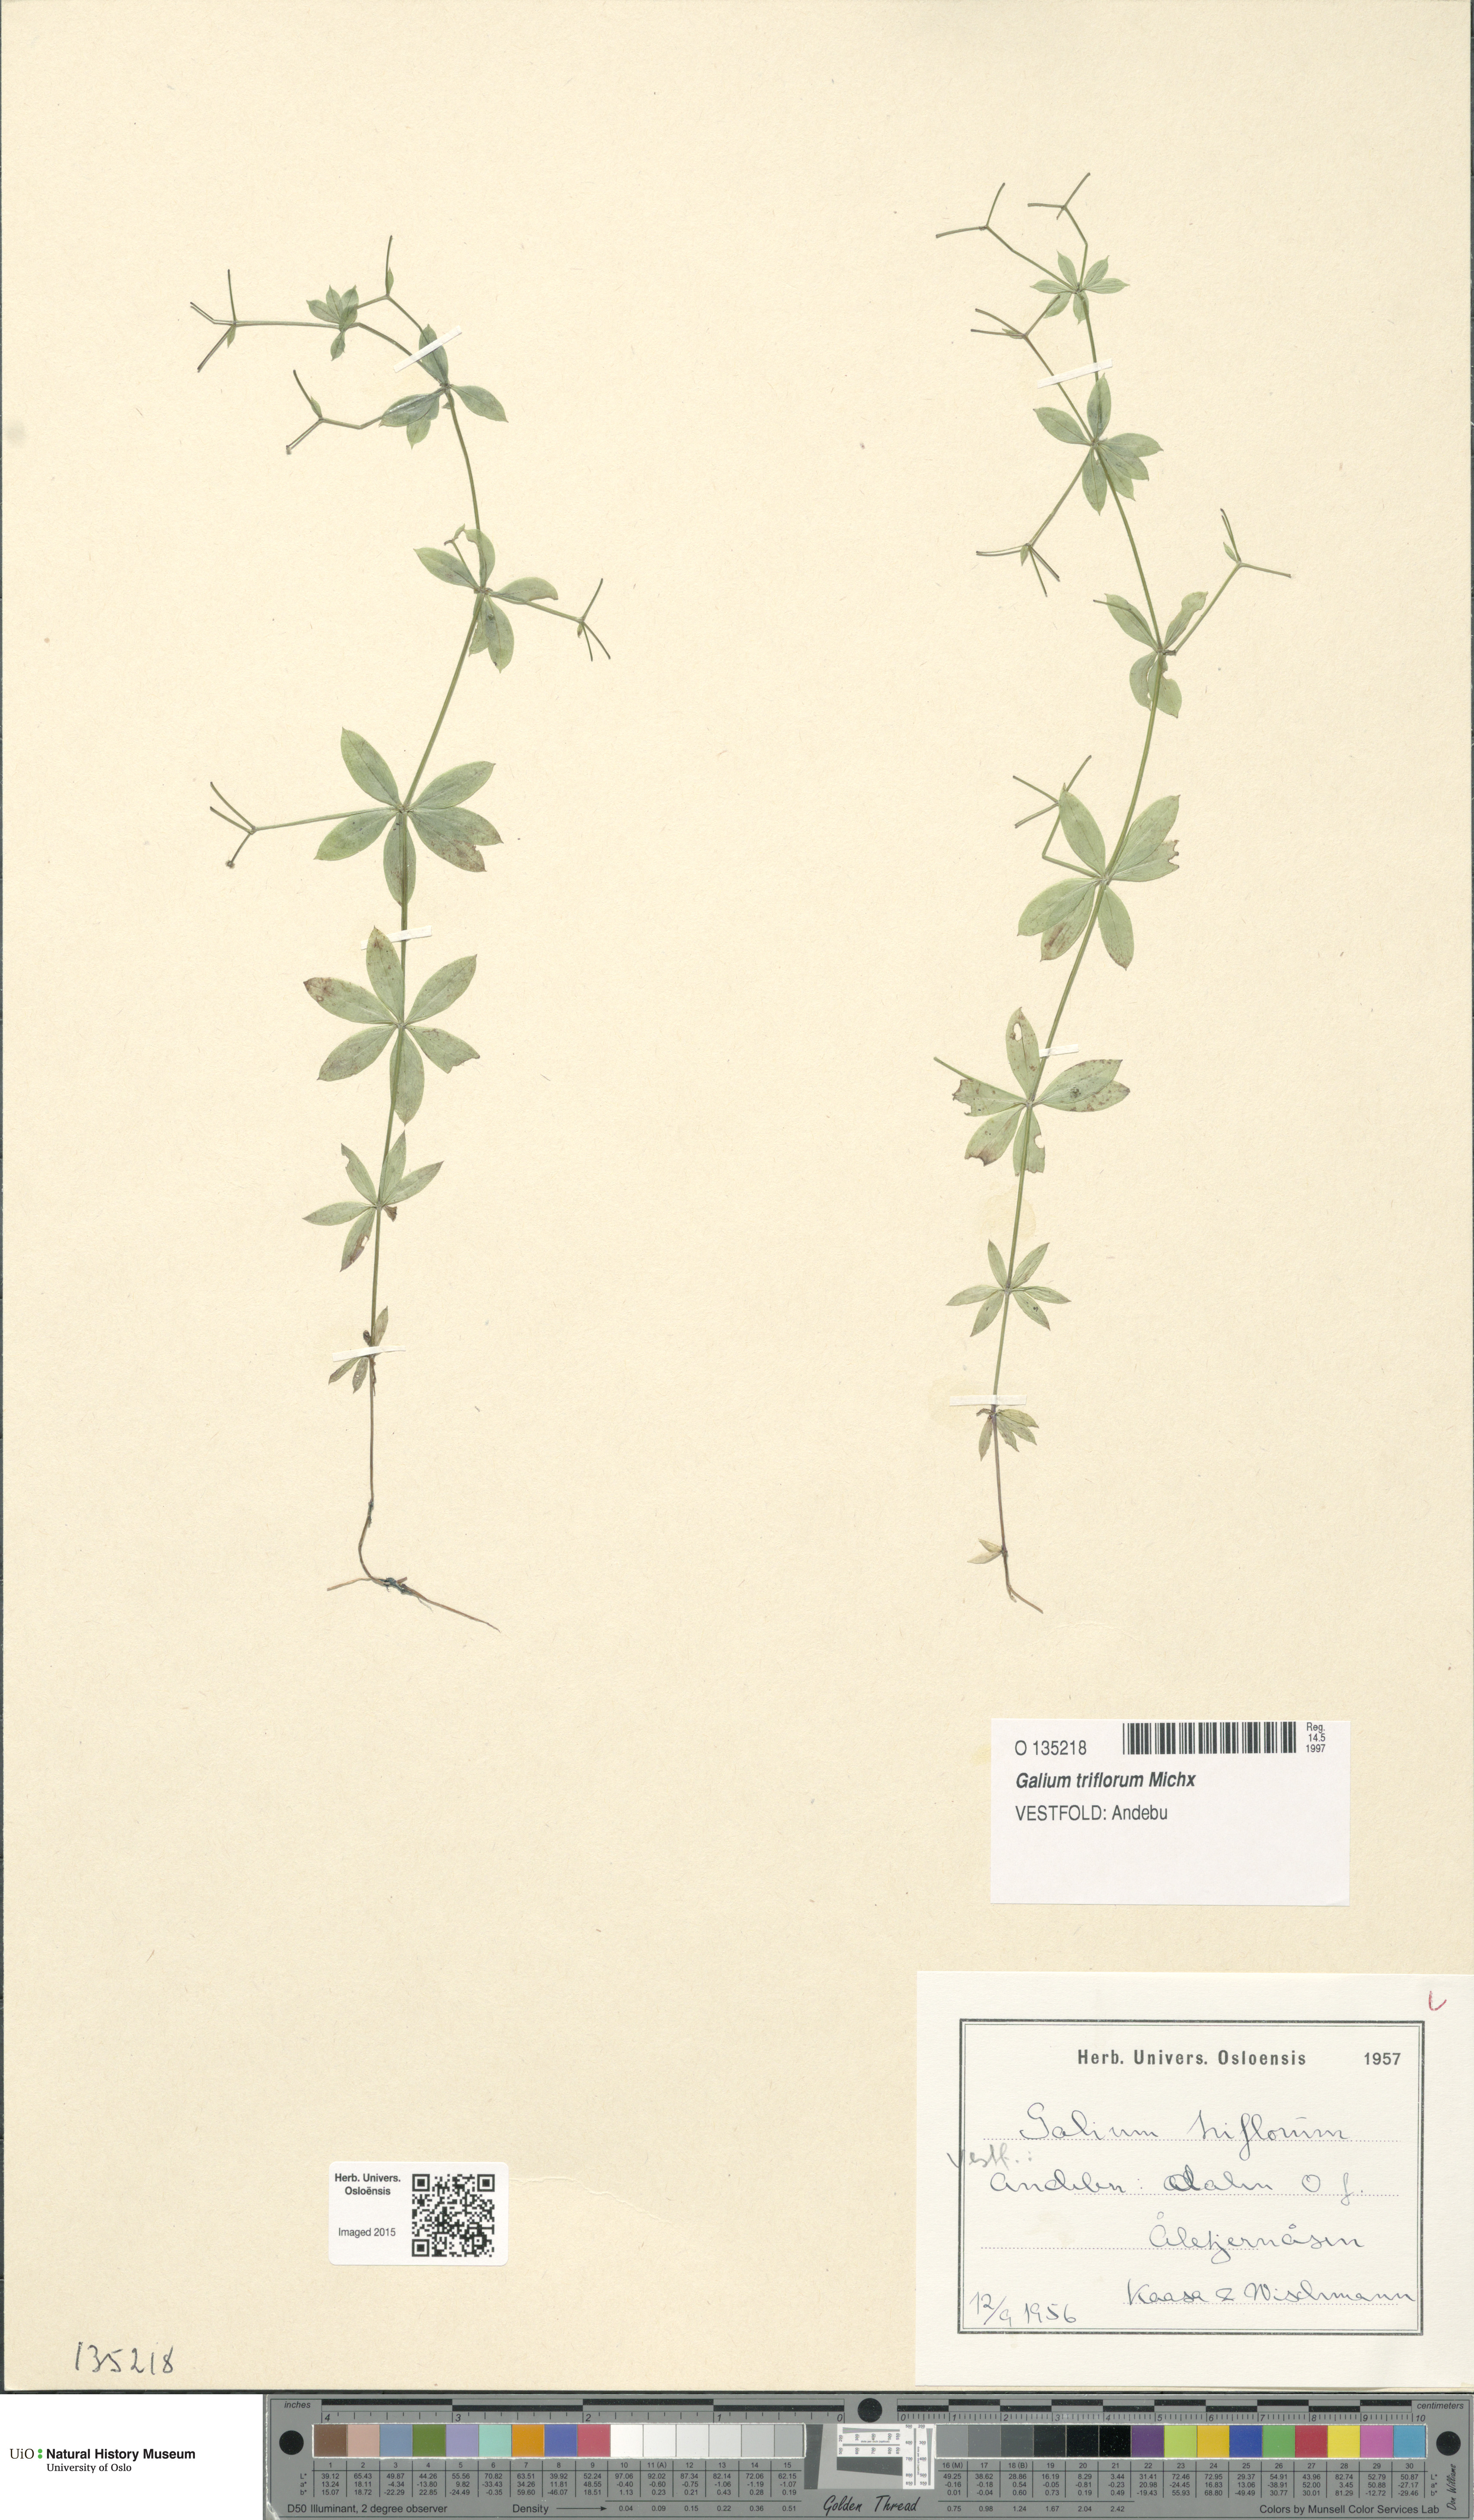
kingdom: Plantae
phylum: Tracheophyta
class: Magnoliopsida
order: Gentianales
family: Rubiaceae
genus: Galium
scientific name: Galium triflorum
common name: Fragrant bedstraw
